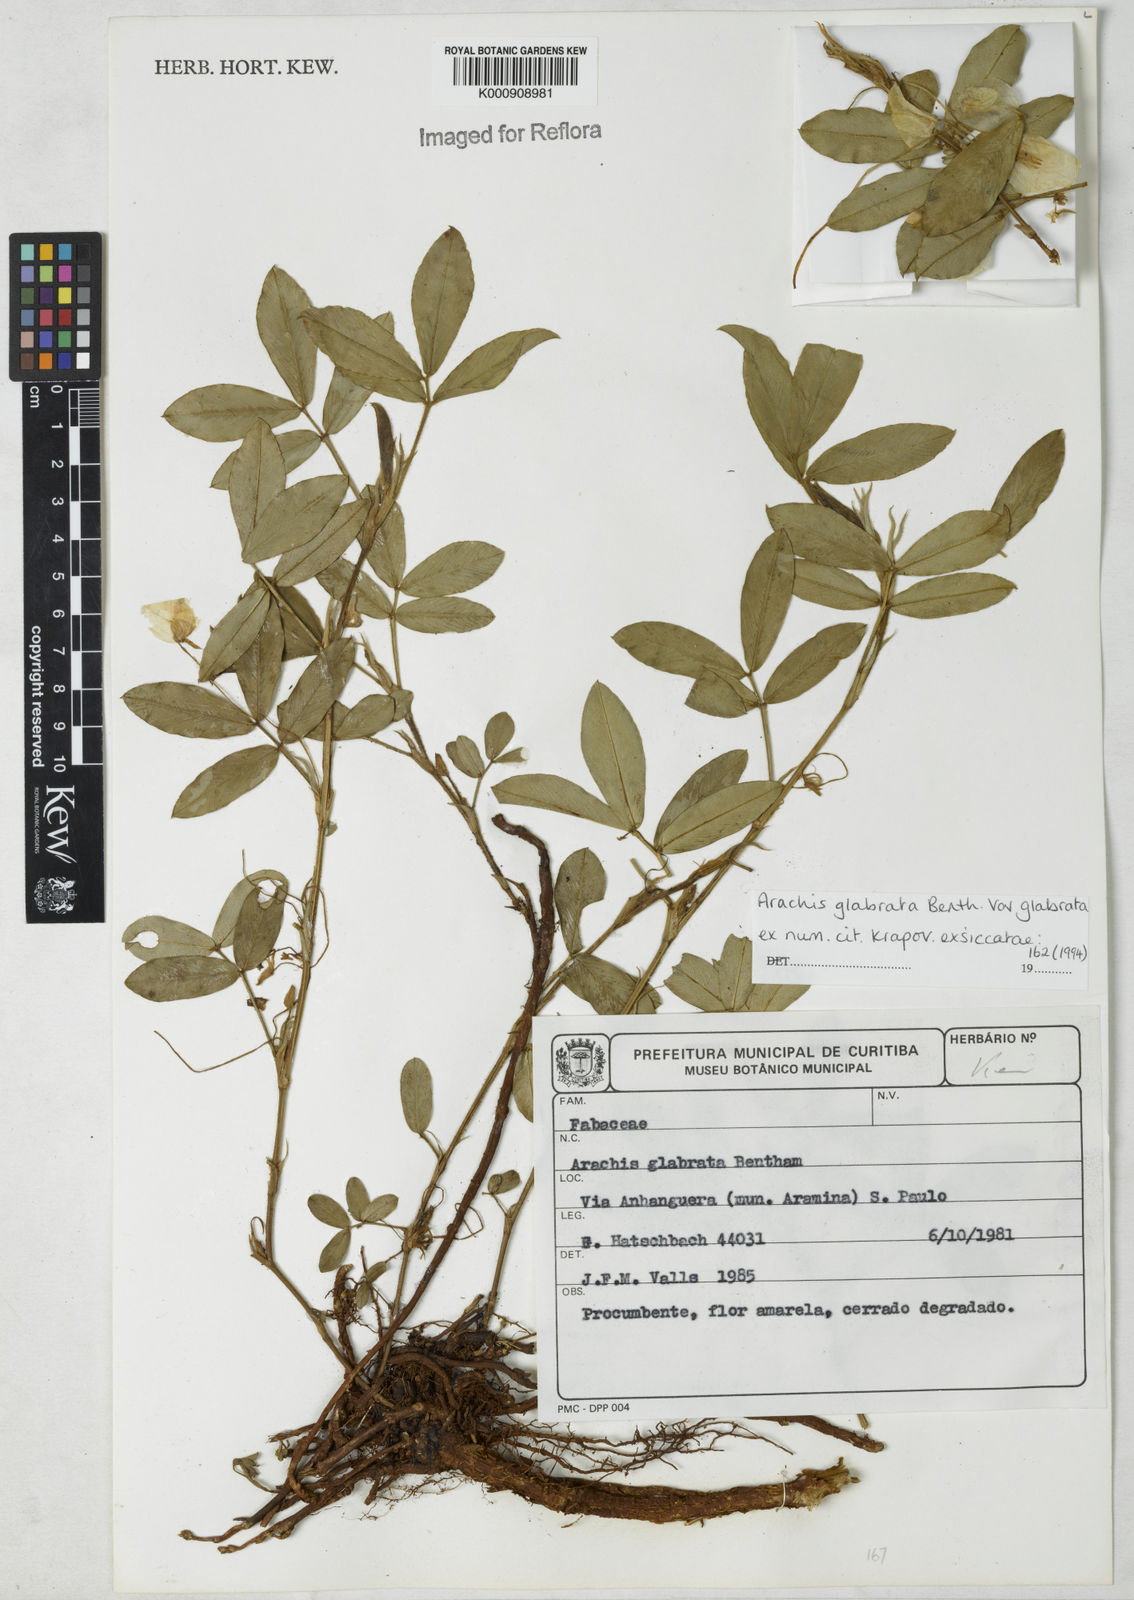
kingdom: Plantae
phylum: Tracheophyta
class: Magnoliopsida
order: Fabales
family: Fabaceae
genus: Arachis
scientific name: Arachis glabrata
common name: Rhizoma peanut
